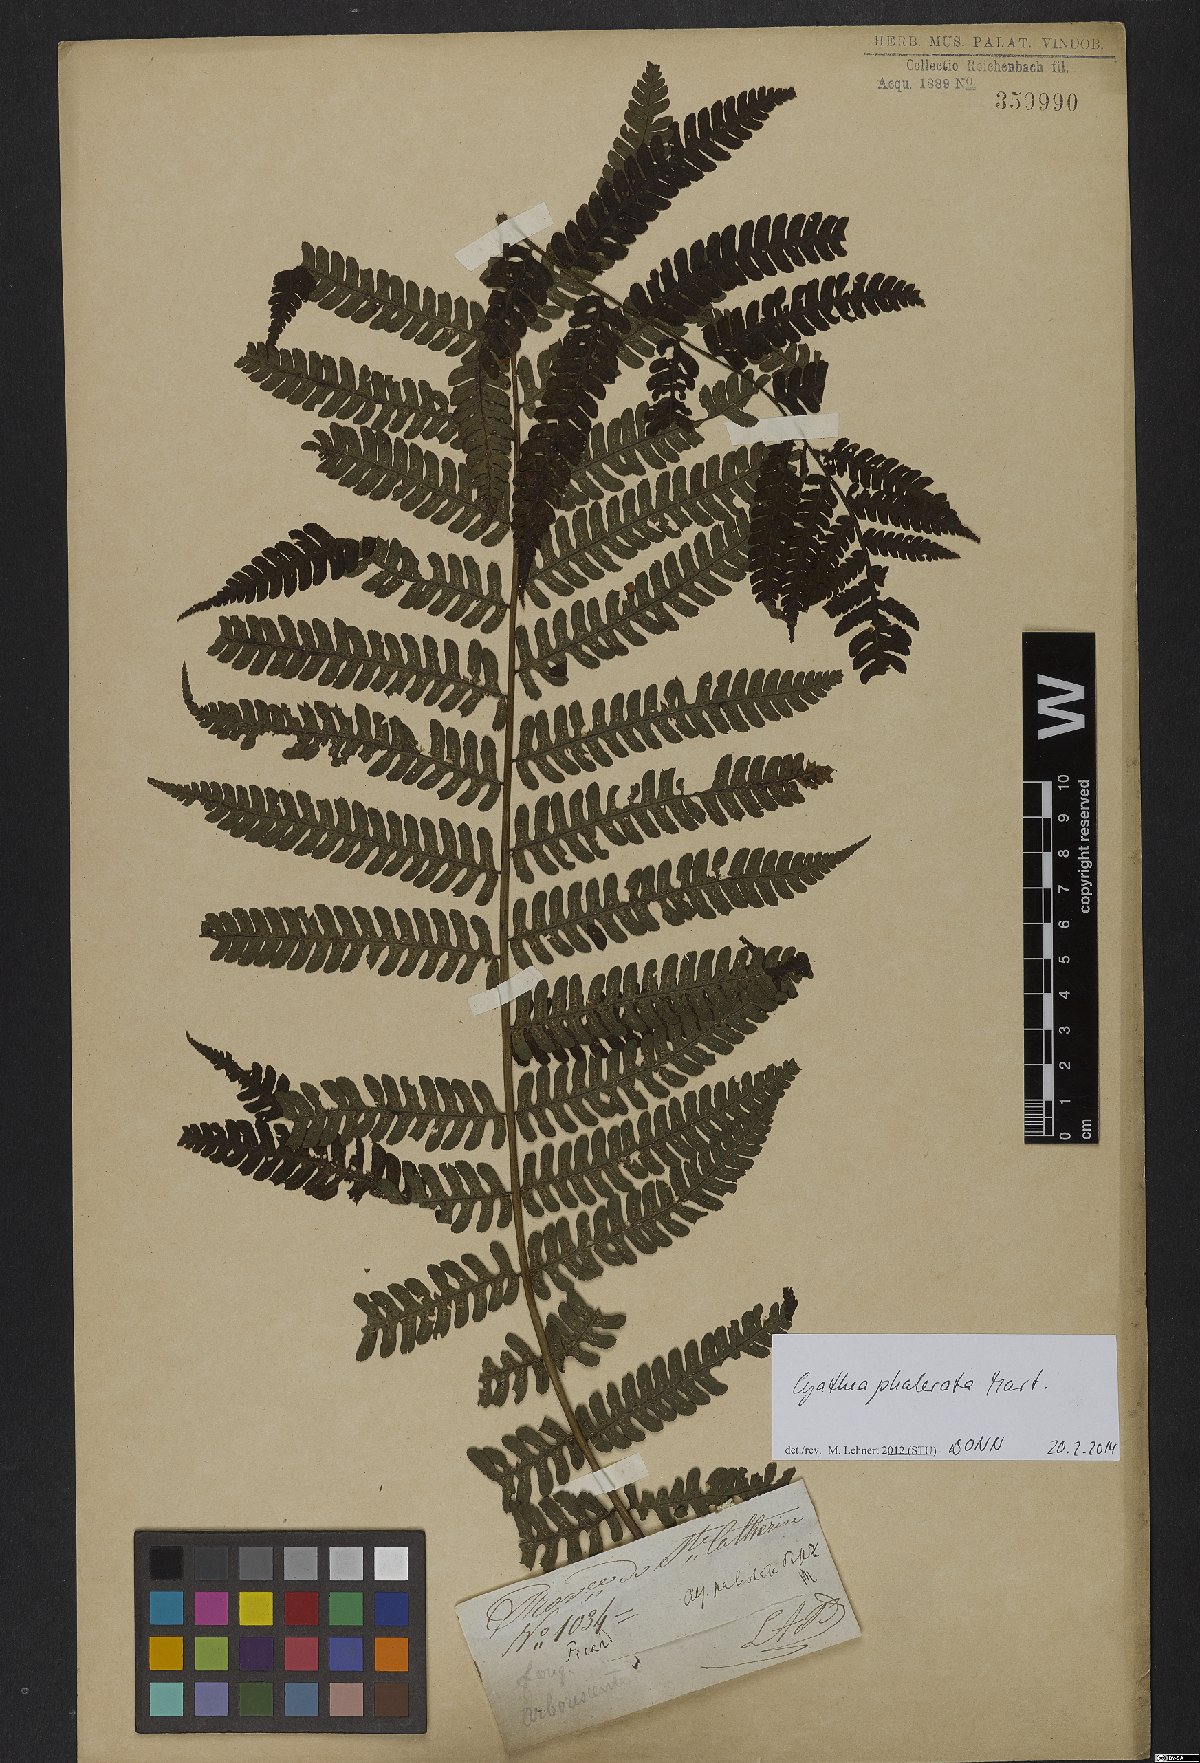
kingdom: Plantae
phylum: Tracheophyta
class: Polypodiopsida
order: Cyatheales
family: Cyatheaceae
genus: Cyathea
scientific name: Cyathea phalerata
